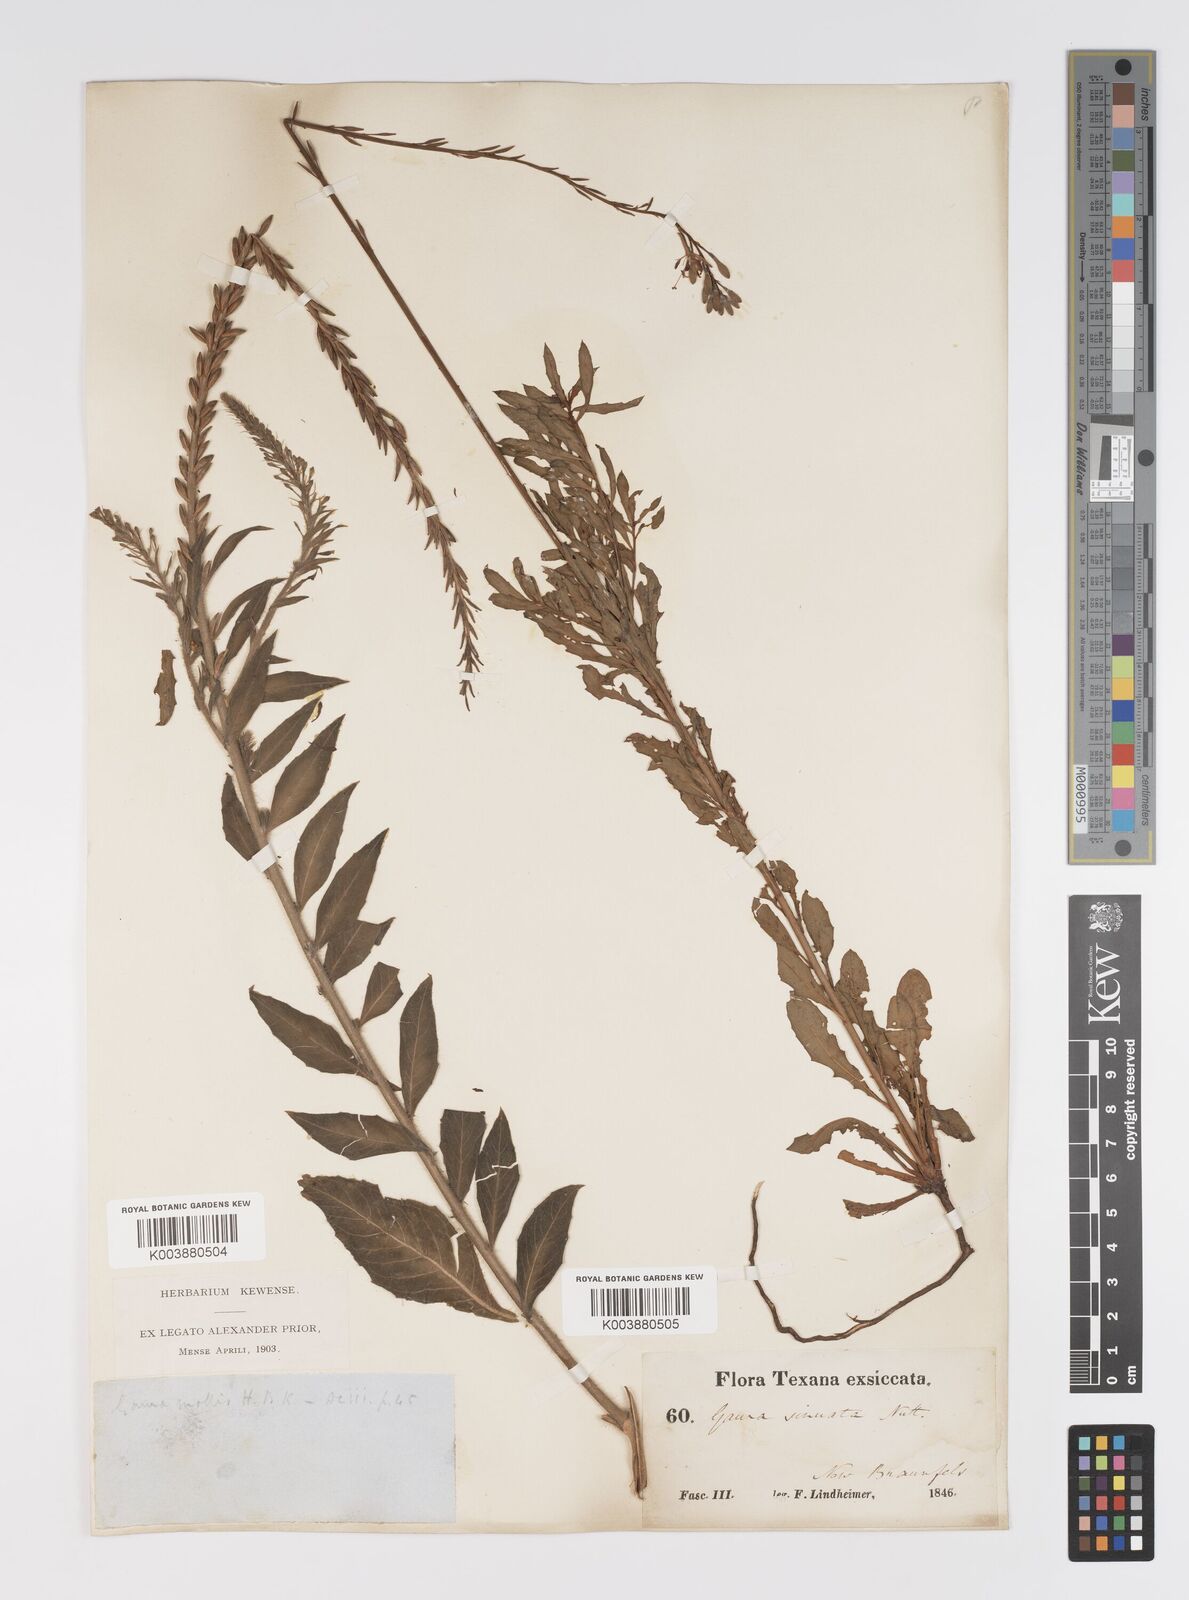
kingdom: Plantae
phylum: Tracheophyta
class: Magnoliopsida
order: Myrtales
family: Onagraceae
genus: Oenothera
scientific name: Oenothera sinuosa
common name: Wavyleaf beeblossom
